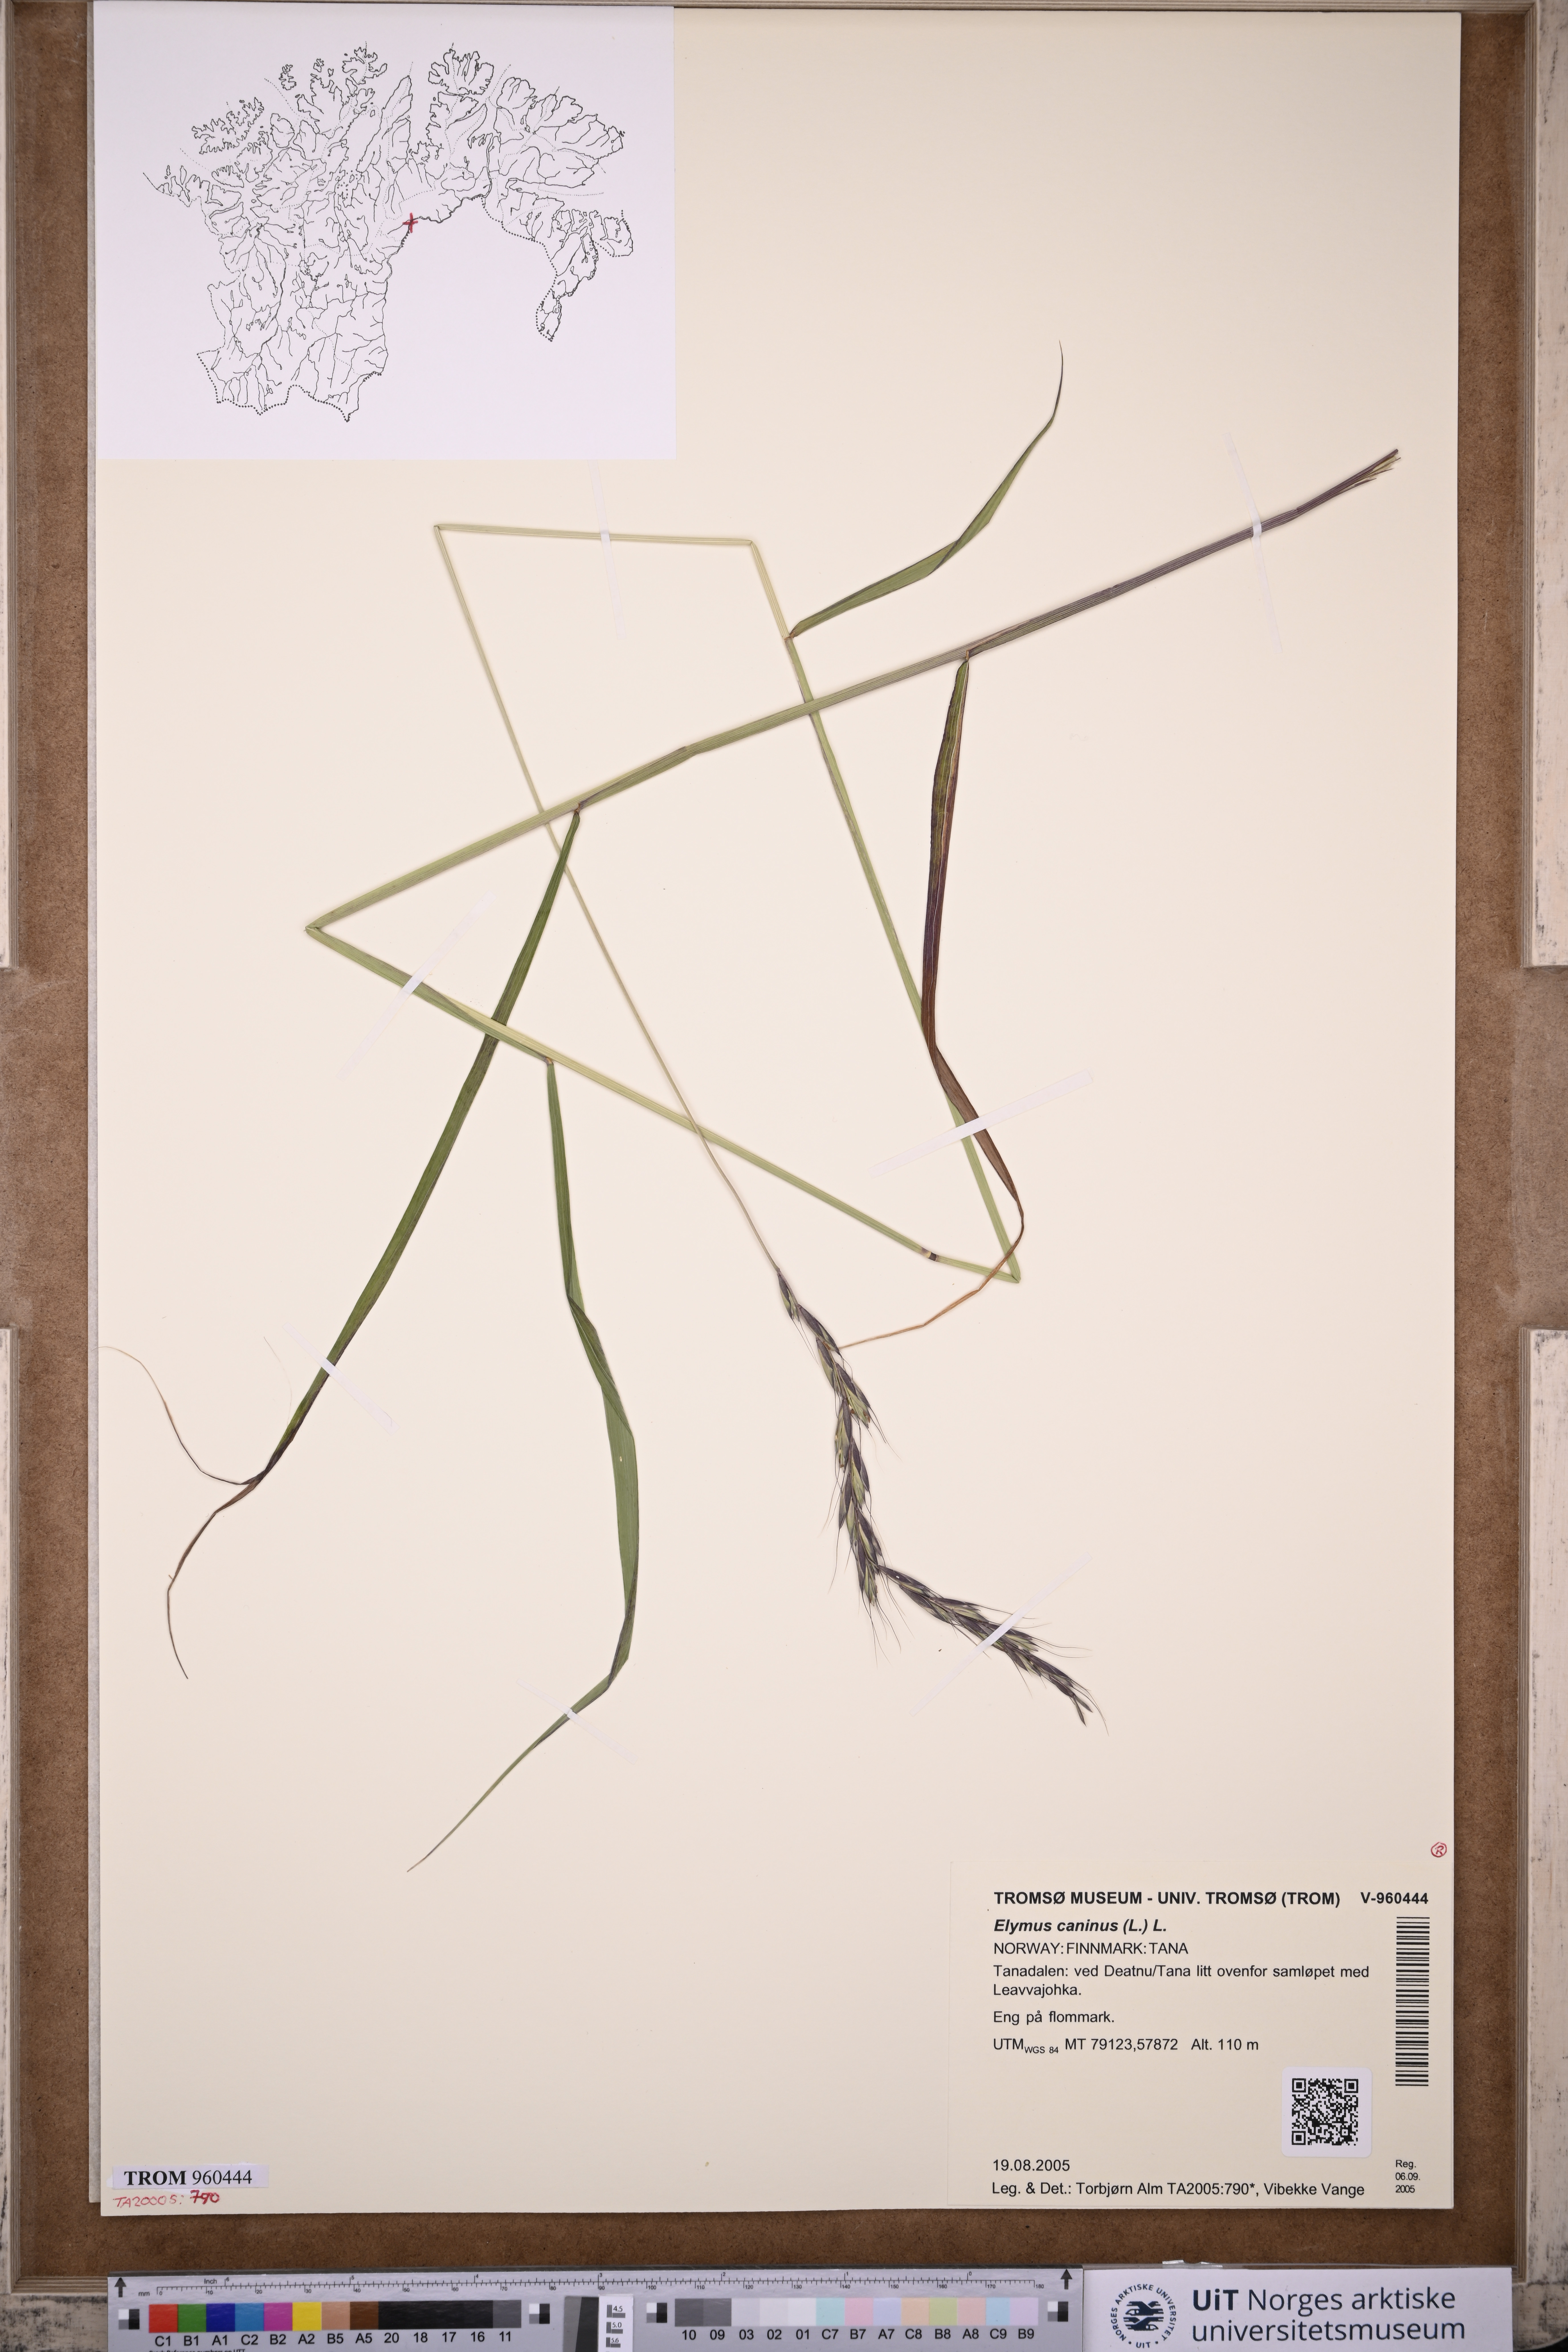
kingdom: Plantae
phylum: Tracheophyta
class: Liliopsida
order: Poales
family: Poaceae
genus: Elymus
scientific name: Elymus caninus
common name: Bearded couch
